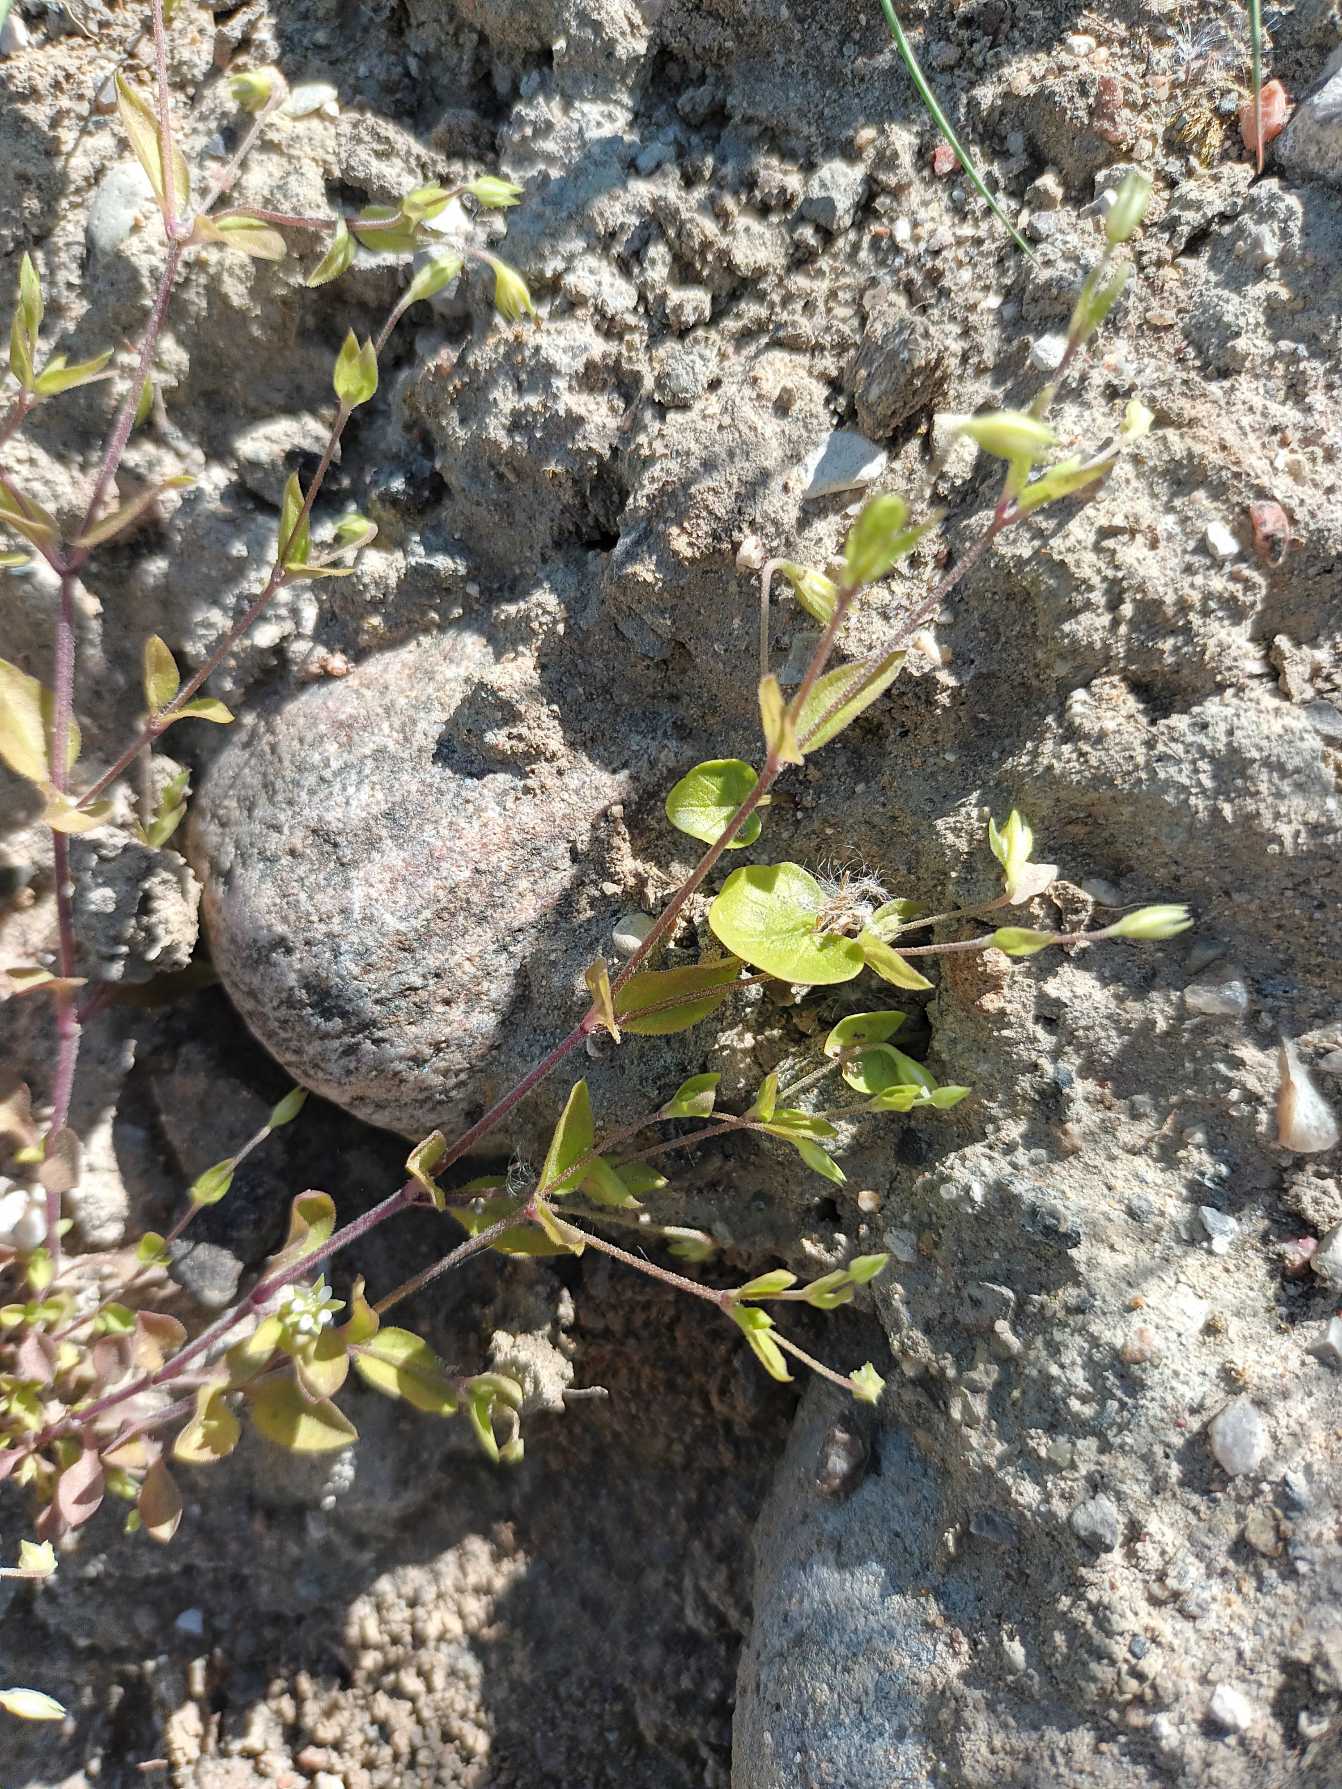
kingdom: Plantae
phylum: Tracheophyta
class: Magnoliopsida
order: Caryophyllales
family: Caryophyllaceae
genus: Moehringia
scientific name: Moehringia trinervia
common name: Skovarve
